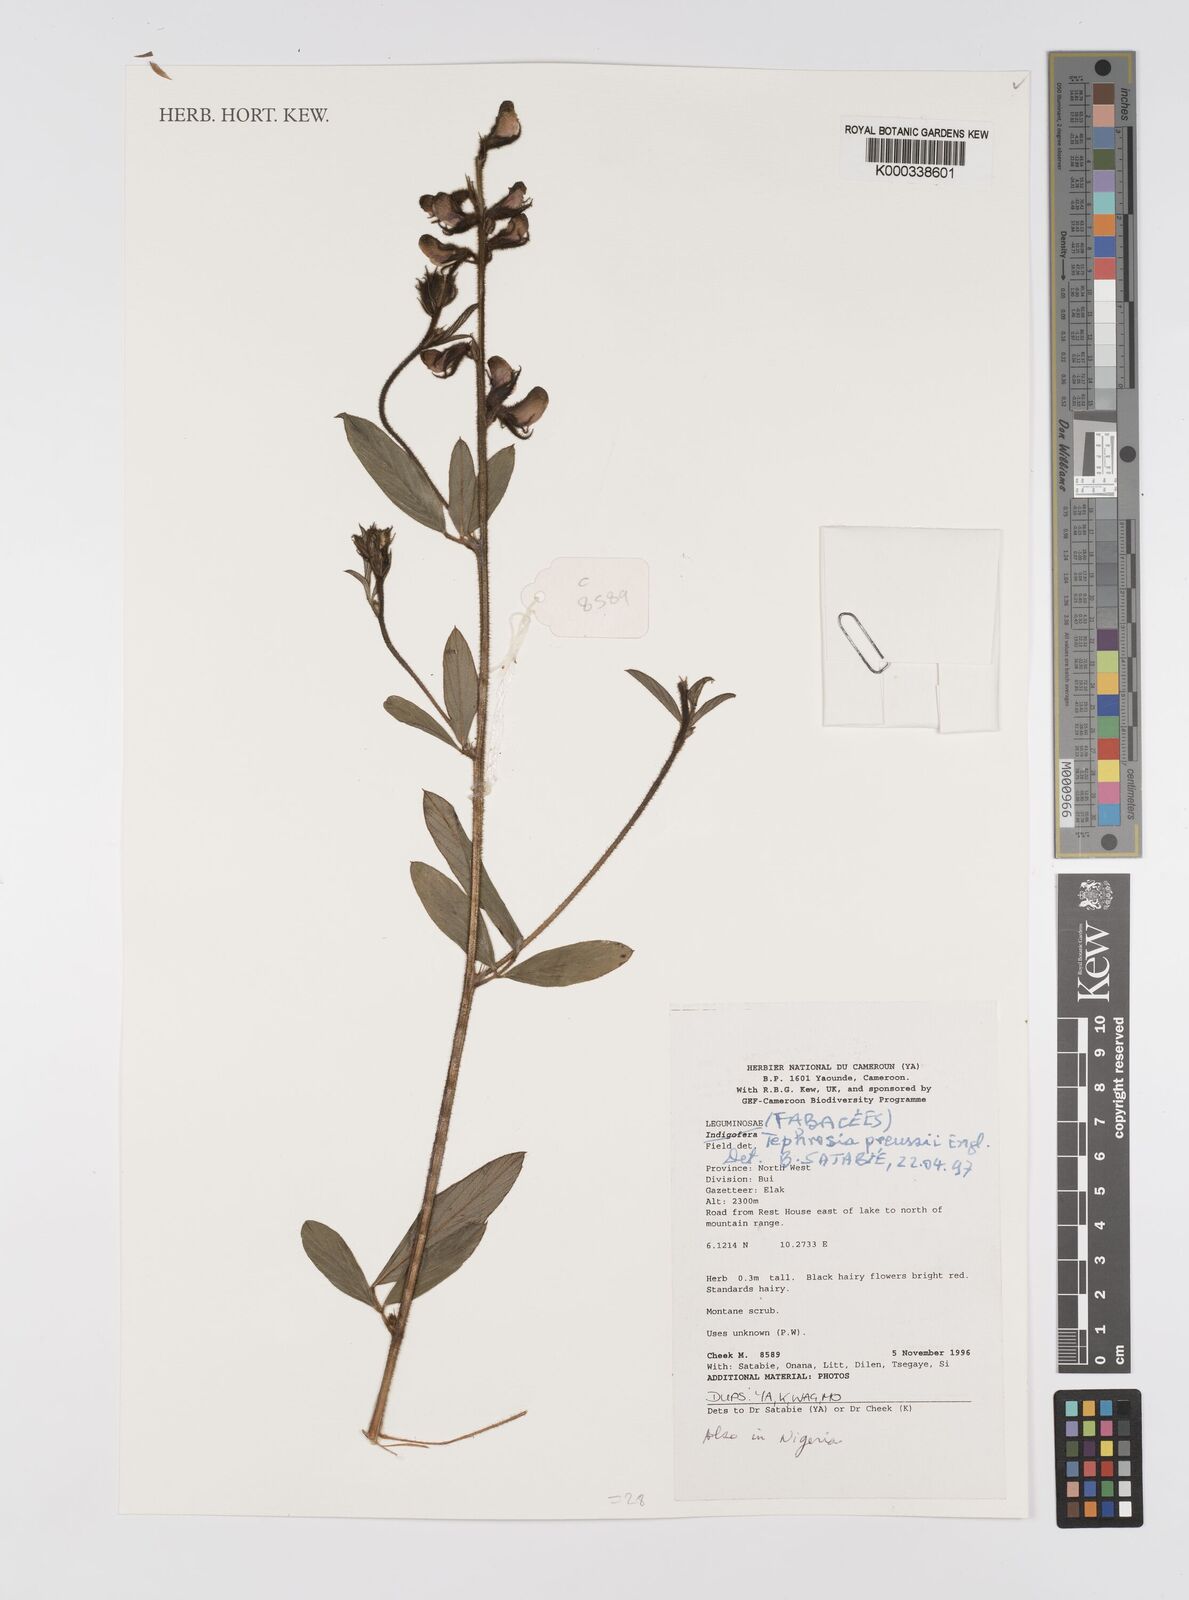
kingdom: Plantae
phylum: Tracheophyta
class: Magnoliopsida
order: Fabales
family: Fabaceae
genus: Tephrosia
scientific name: Tephrosia paniculata
